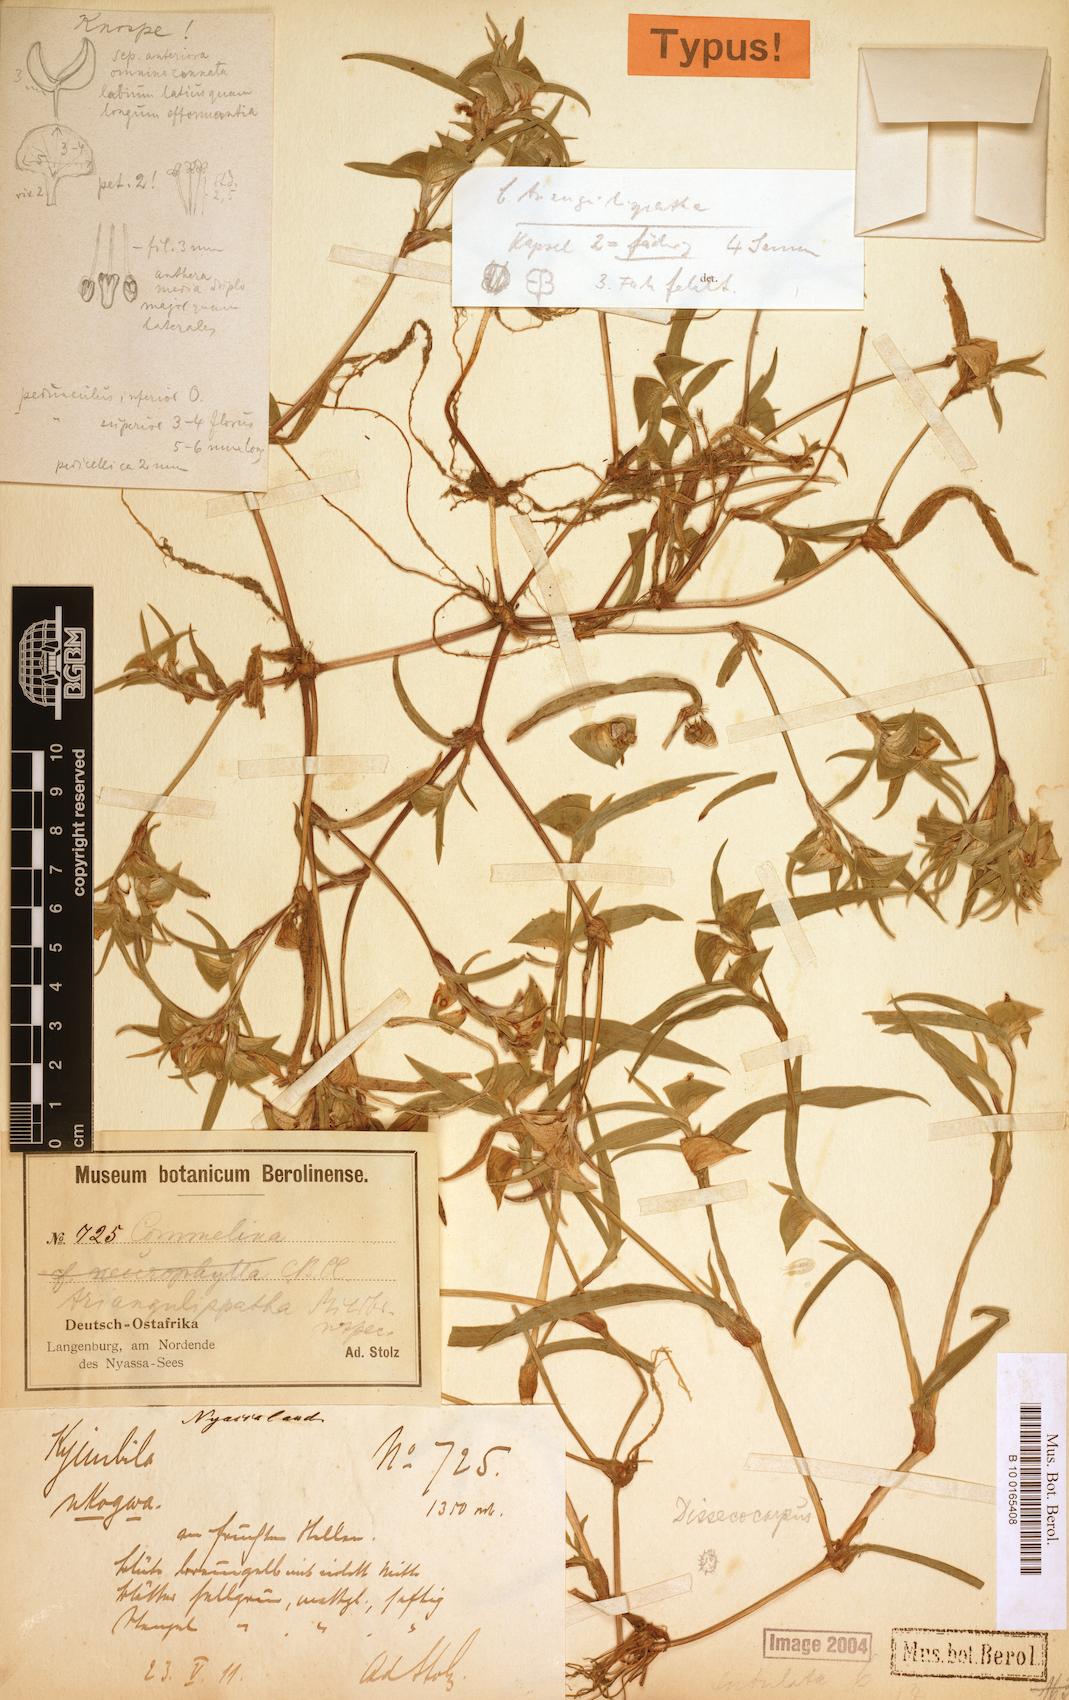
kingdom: Plantae
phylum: Tracheophyta
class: Liliopsida
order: Commelinales
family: Commelinaceae
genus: Commelina
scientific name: Commelina triangulispatha
